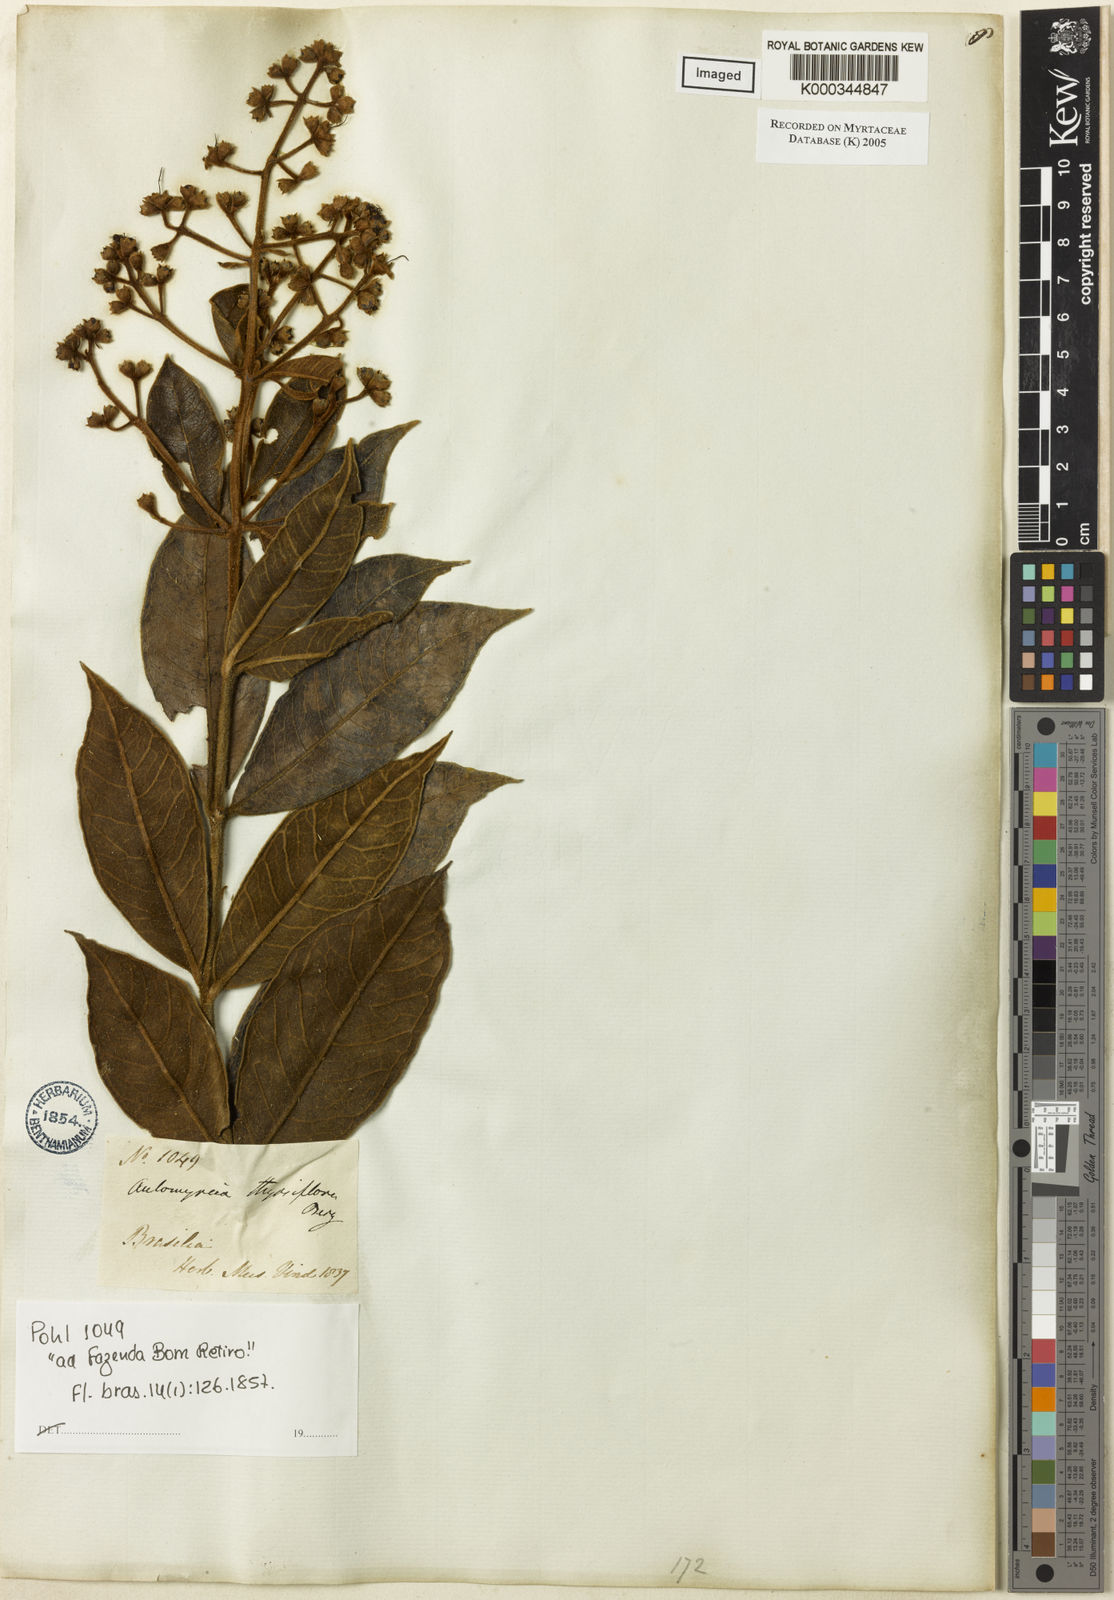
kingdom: Plantae
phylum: Tracheophyta
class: Magnoliopsida
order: Myrtales
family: Myrtaceae
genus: Myrcia
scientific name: Myrcia vestita
